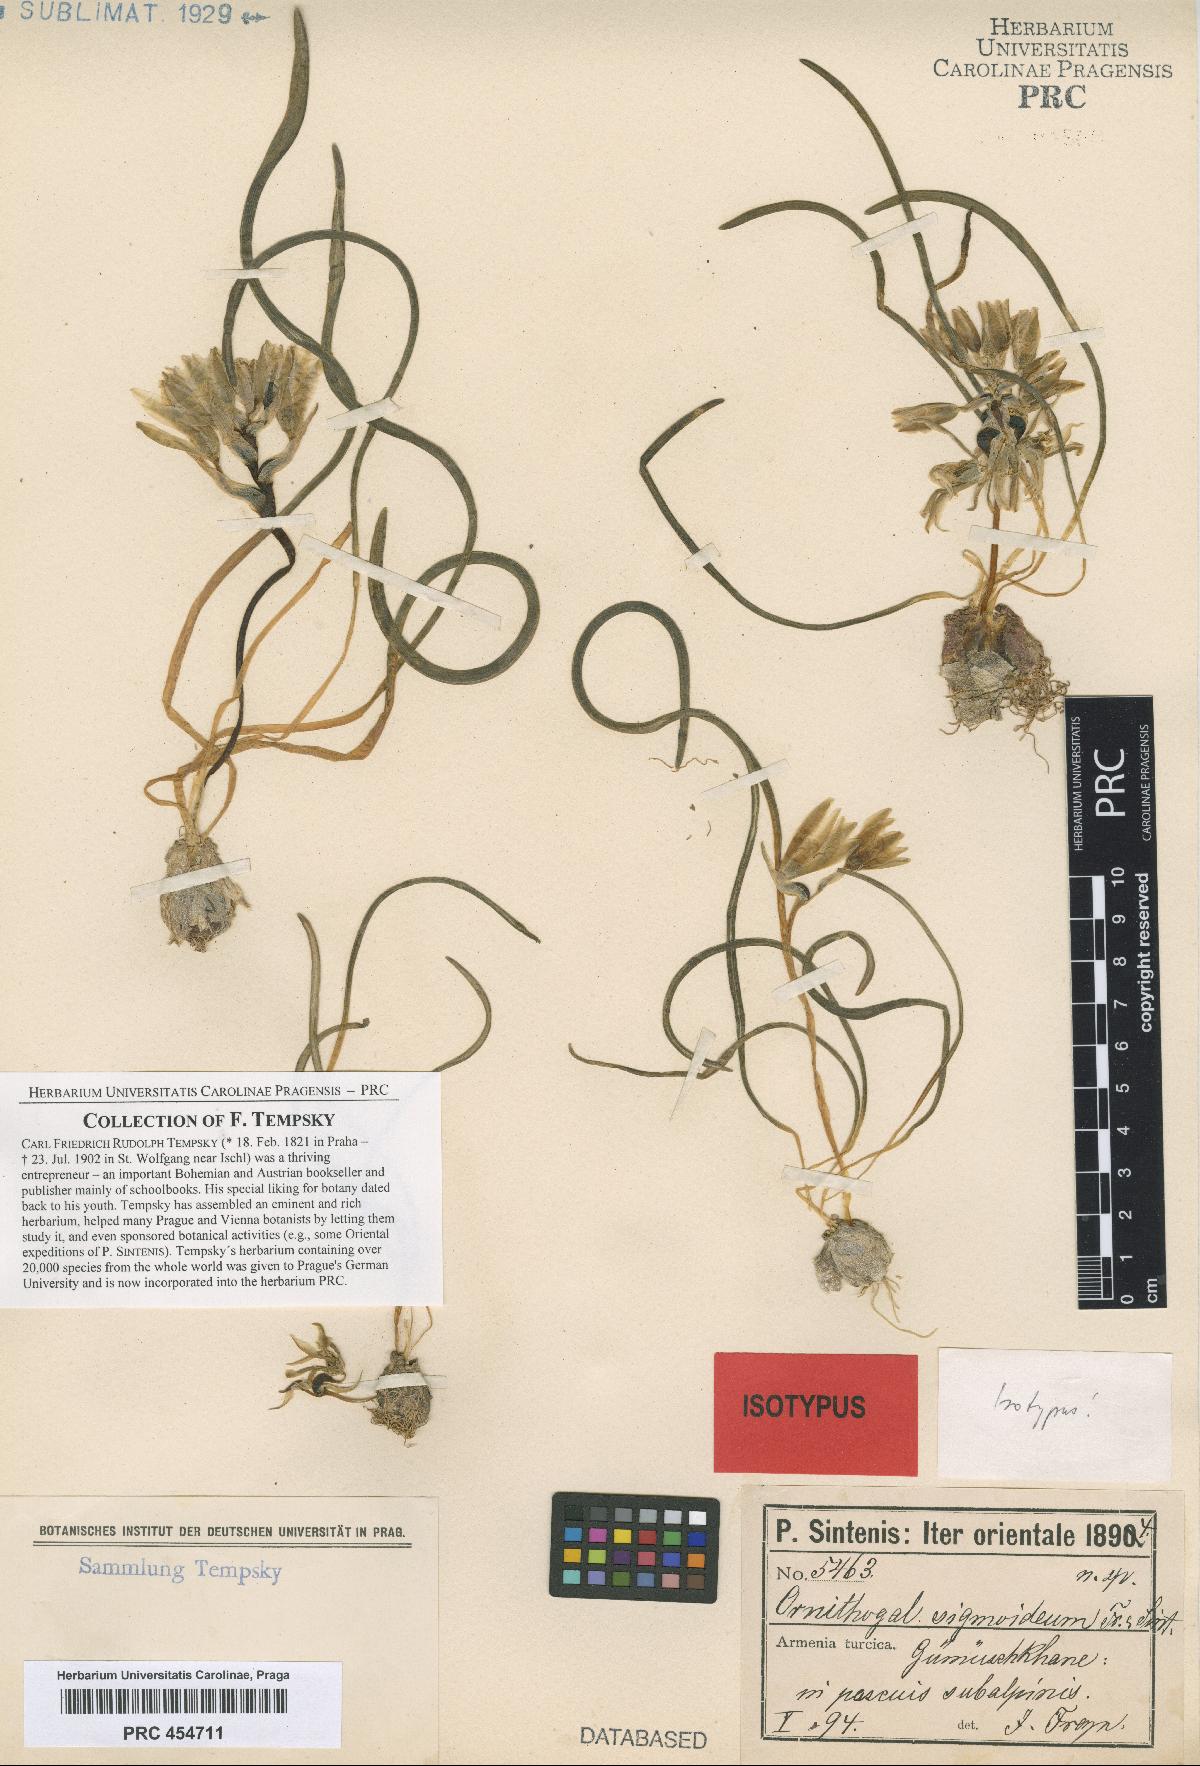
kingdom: Plantae
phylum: Tracheophyta
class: Liliopsida
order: Asparagales
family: Asparagaceae
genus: Ornithogalum
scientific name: Ornithogalum sigmoideum
